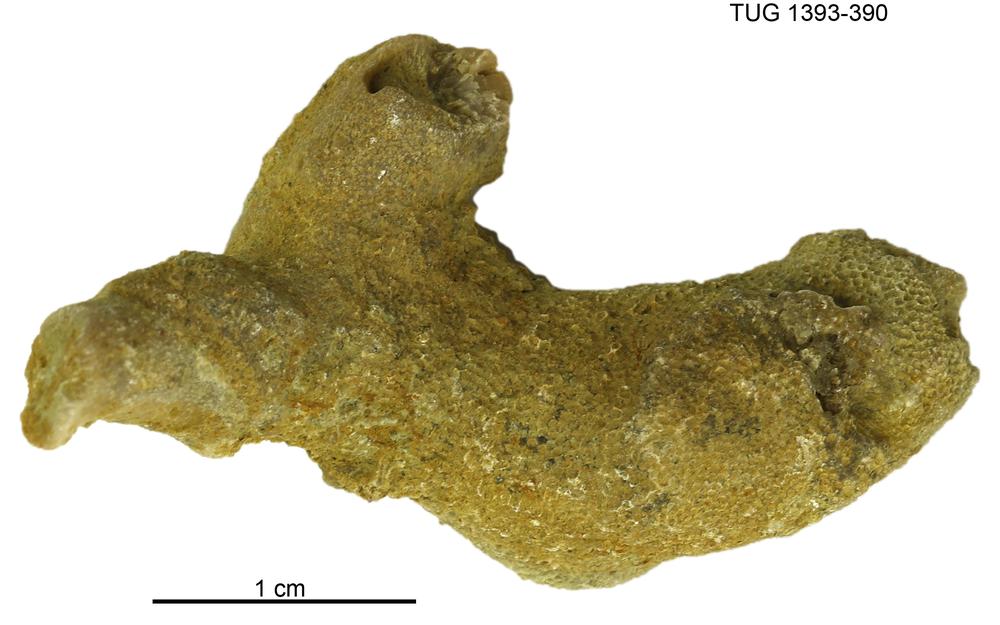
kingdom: Animalia
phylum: Bryozoa
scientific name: Bryozoa
